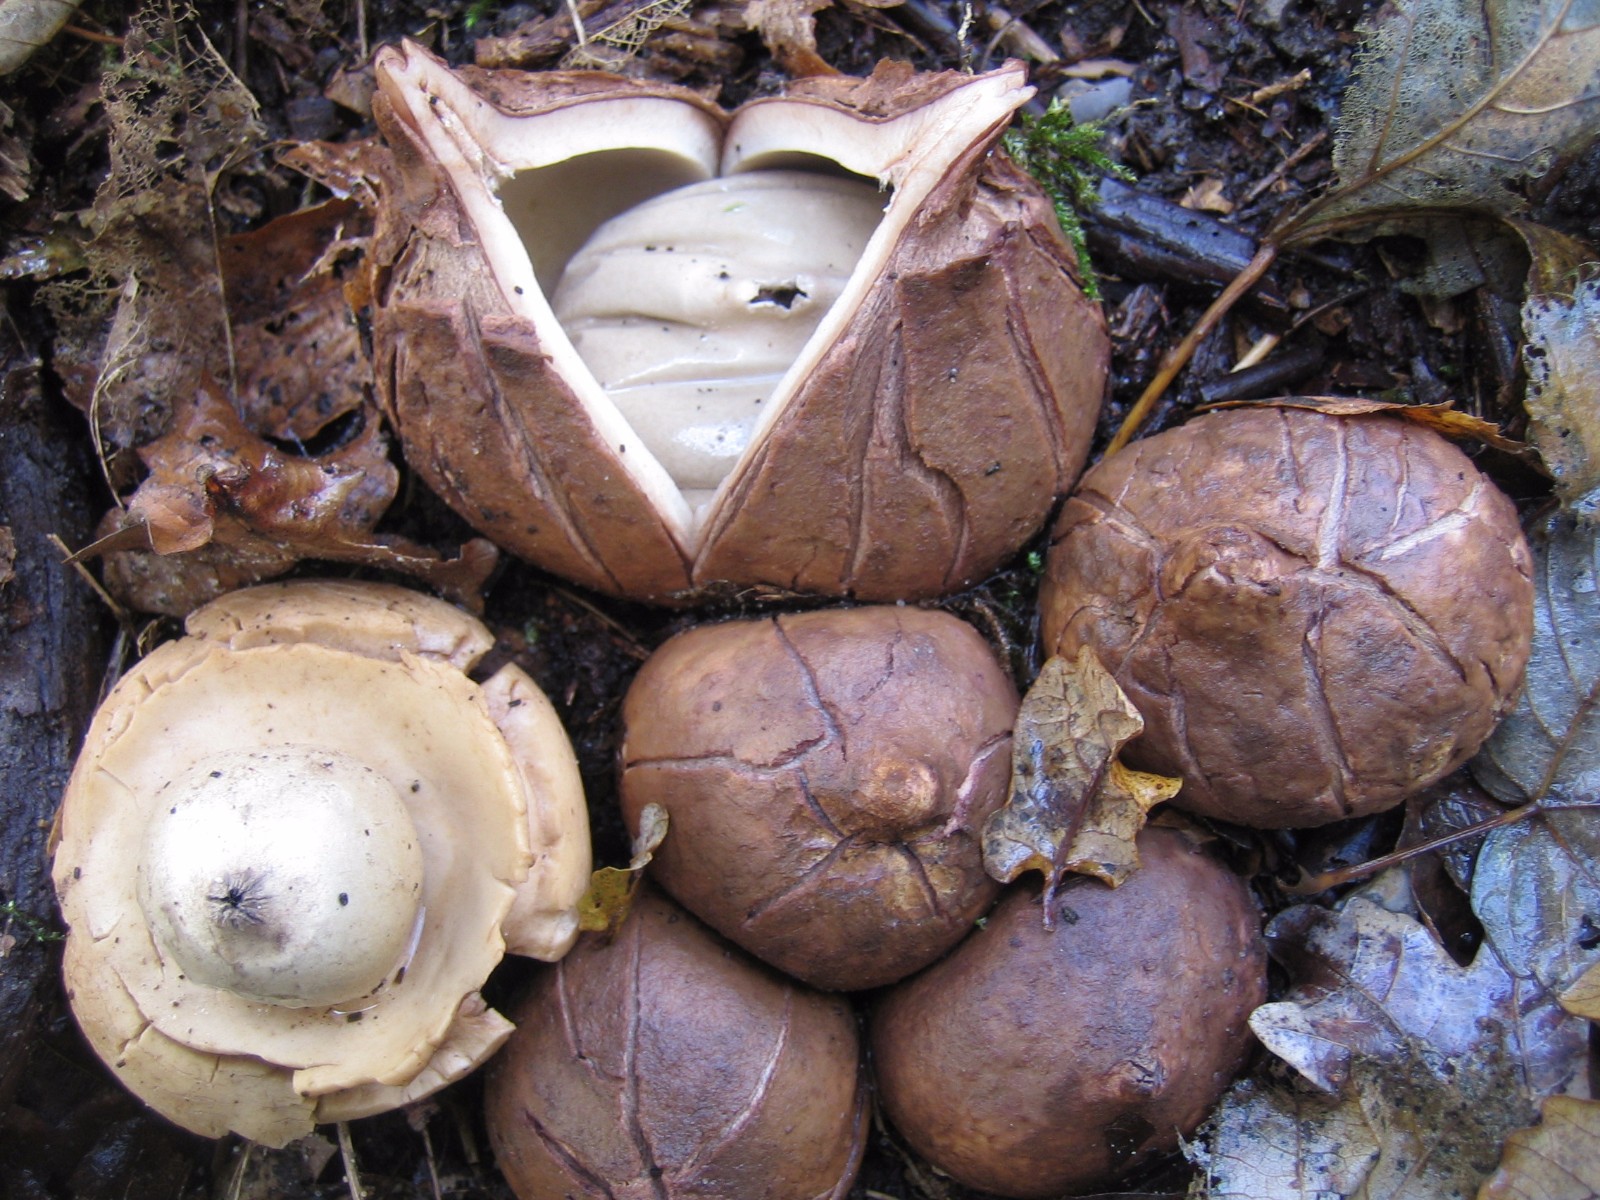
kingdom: Fungi
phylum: Basidiomycota
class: Agaricomycetes
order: Geastrales
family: Geastraceae
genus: Geastrum
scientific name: Geastrum michelianum
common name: kødet stjernebold
